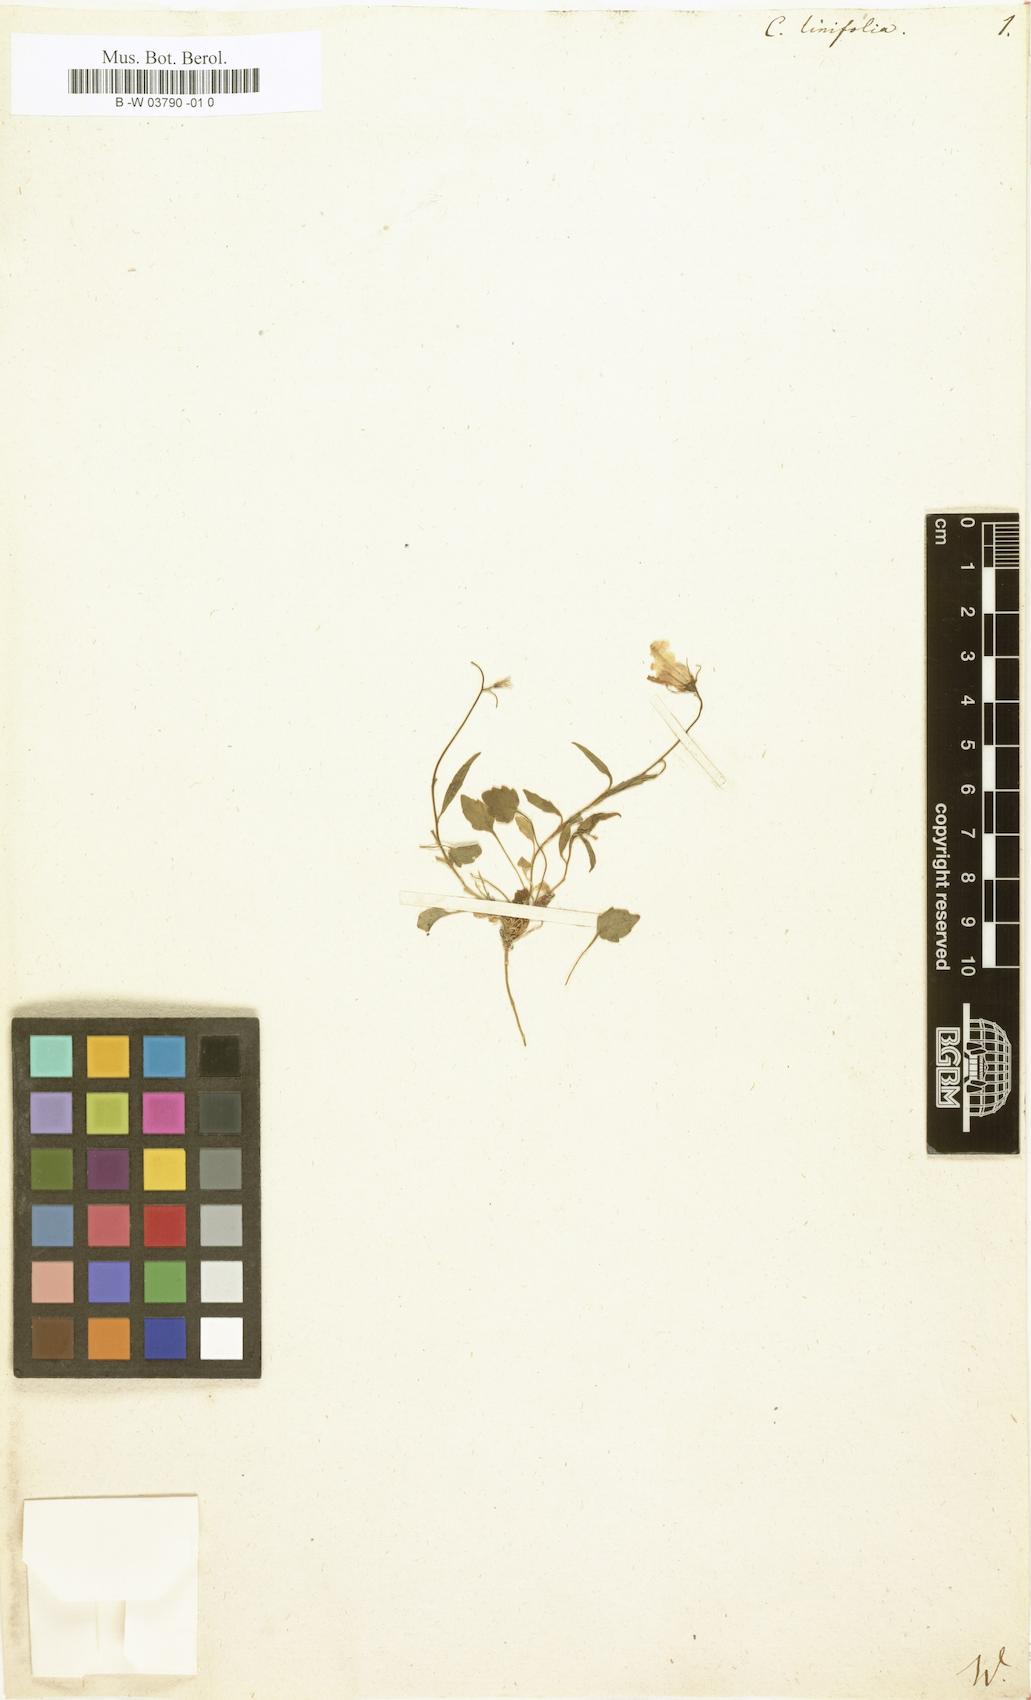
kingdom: Plantae
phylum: Tracheophyta
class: Magnoliopsida
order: Asterales
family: Campanulaceae
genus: Campanula
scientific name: Campanula
